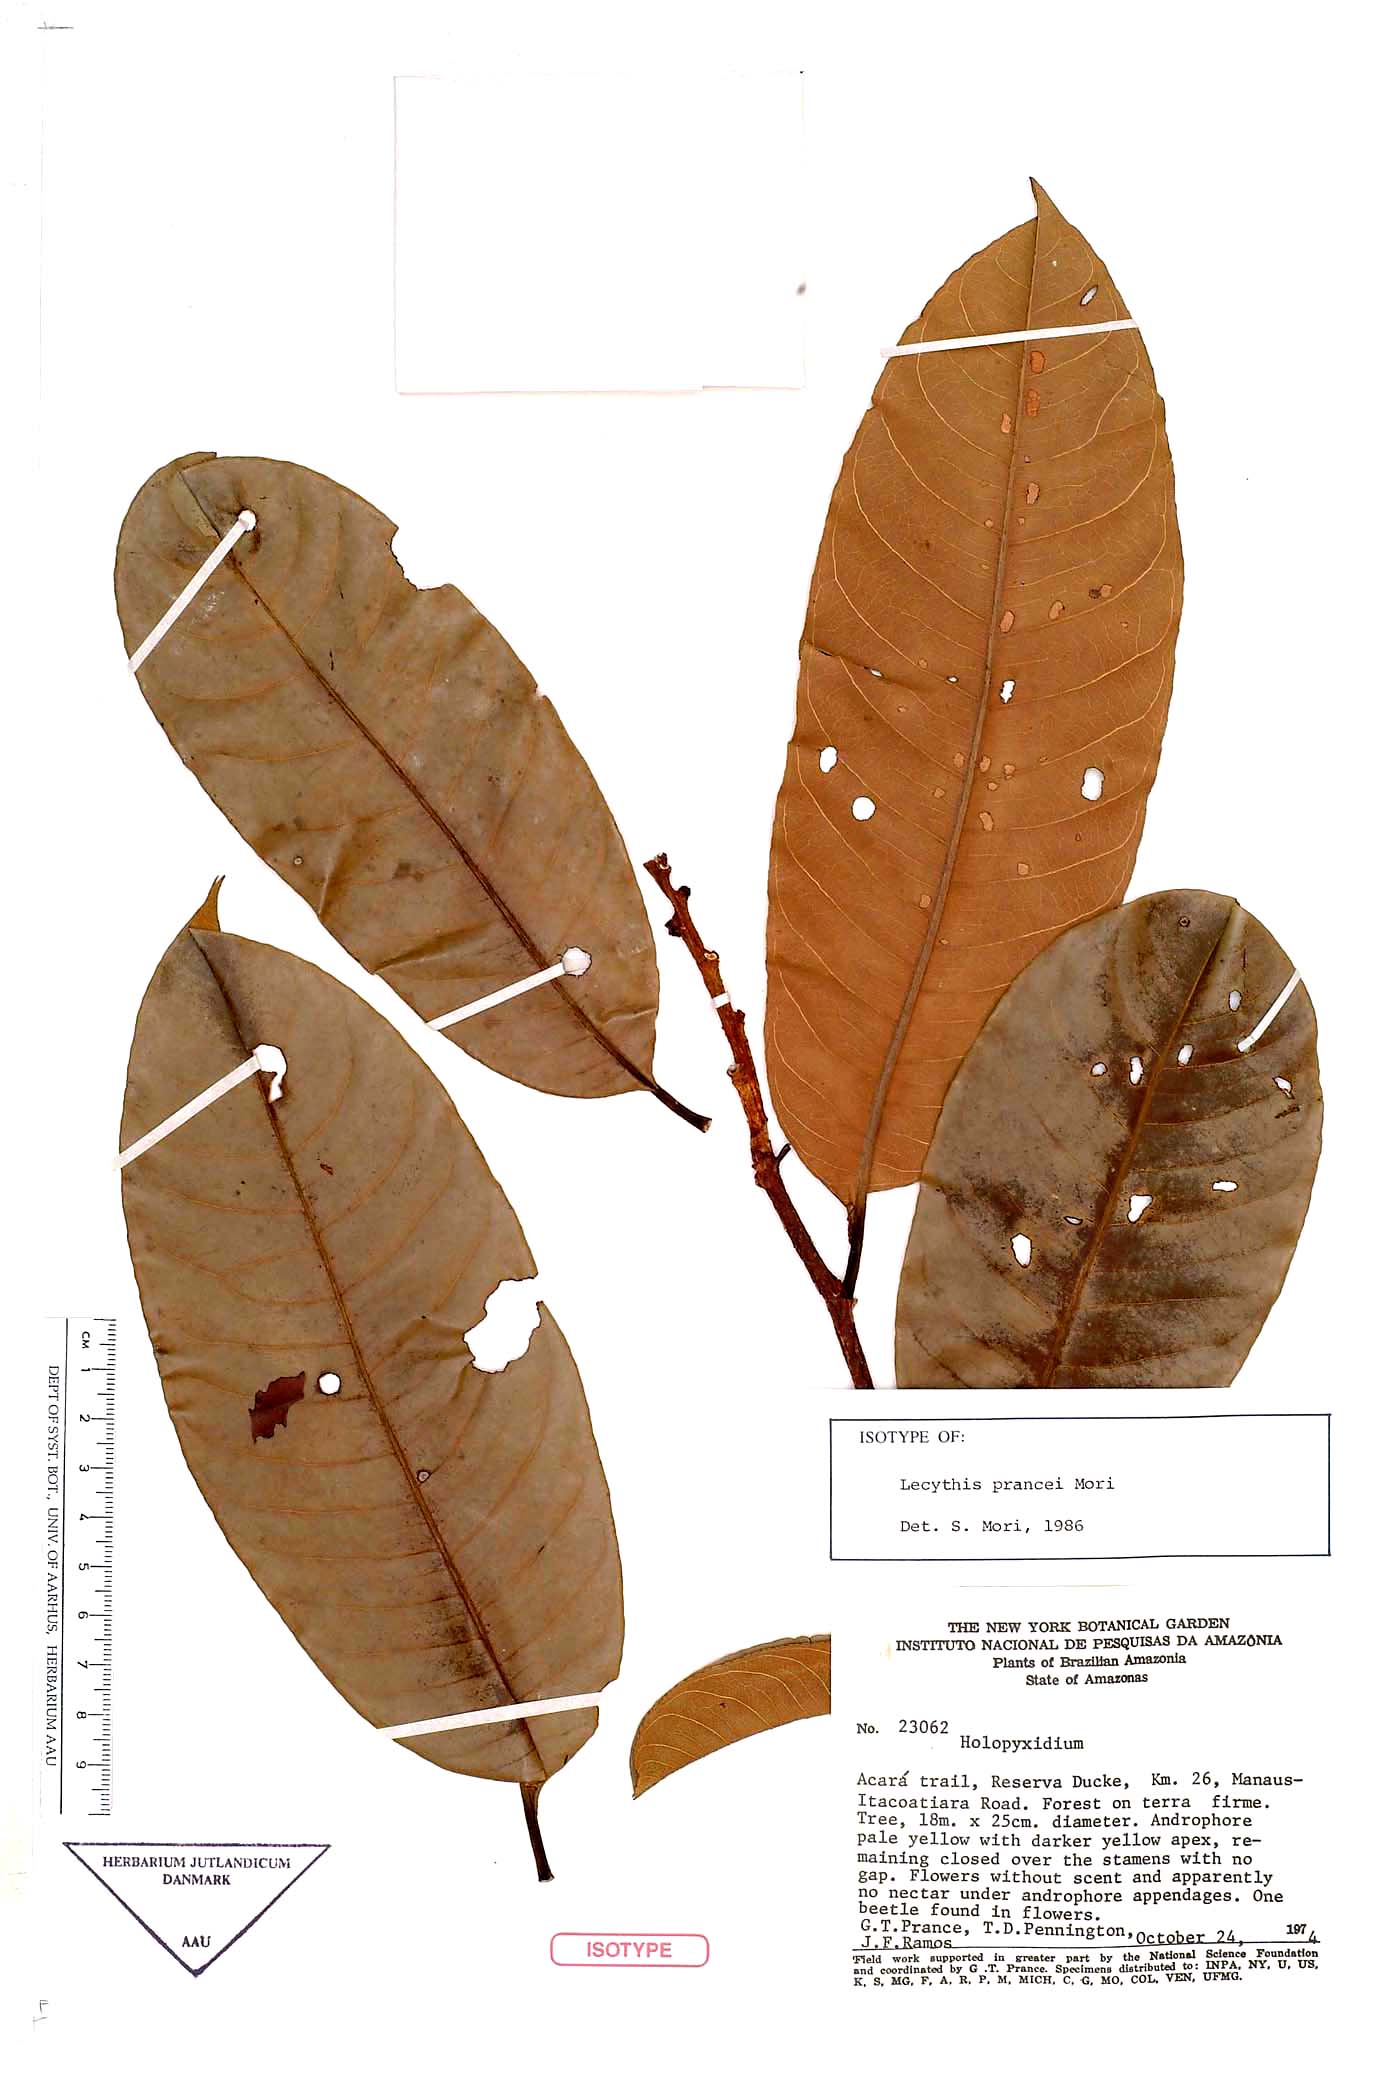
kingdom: Plantae
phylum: Tracheophyta
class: Magnoliopsida
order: Ericales
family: Lecythidaceae
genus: Lecythis
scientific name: Lecythis prancei
